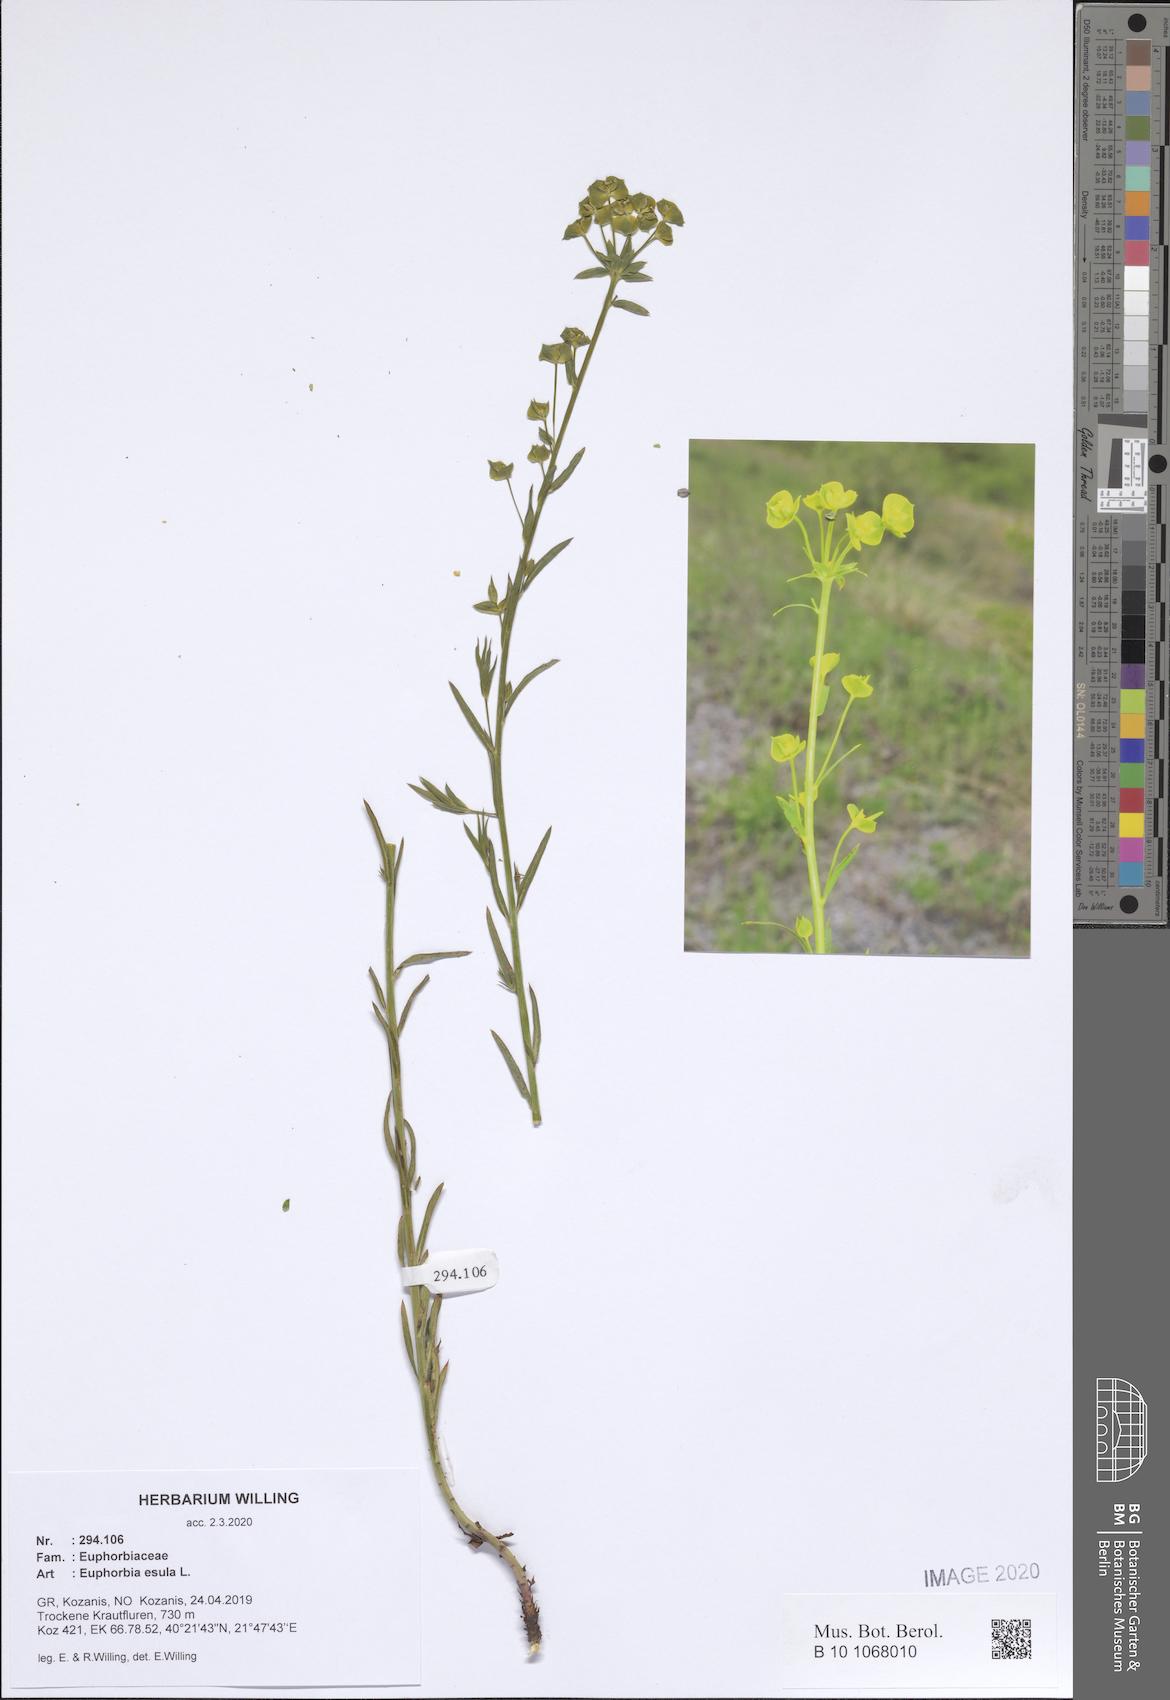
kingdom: Plantae
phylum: Tracheophyta
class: Magnoliopsida
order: Malpighiales
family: Euphorbiaceae
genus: Euphorbia
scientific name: Euphorbia esula
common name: Leafy spurge
